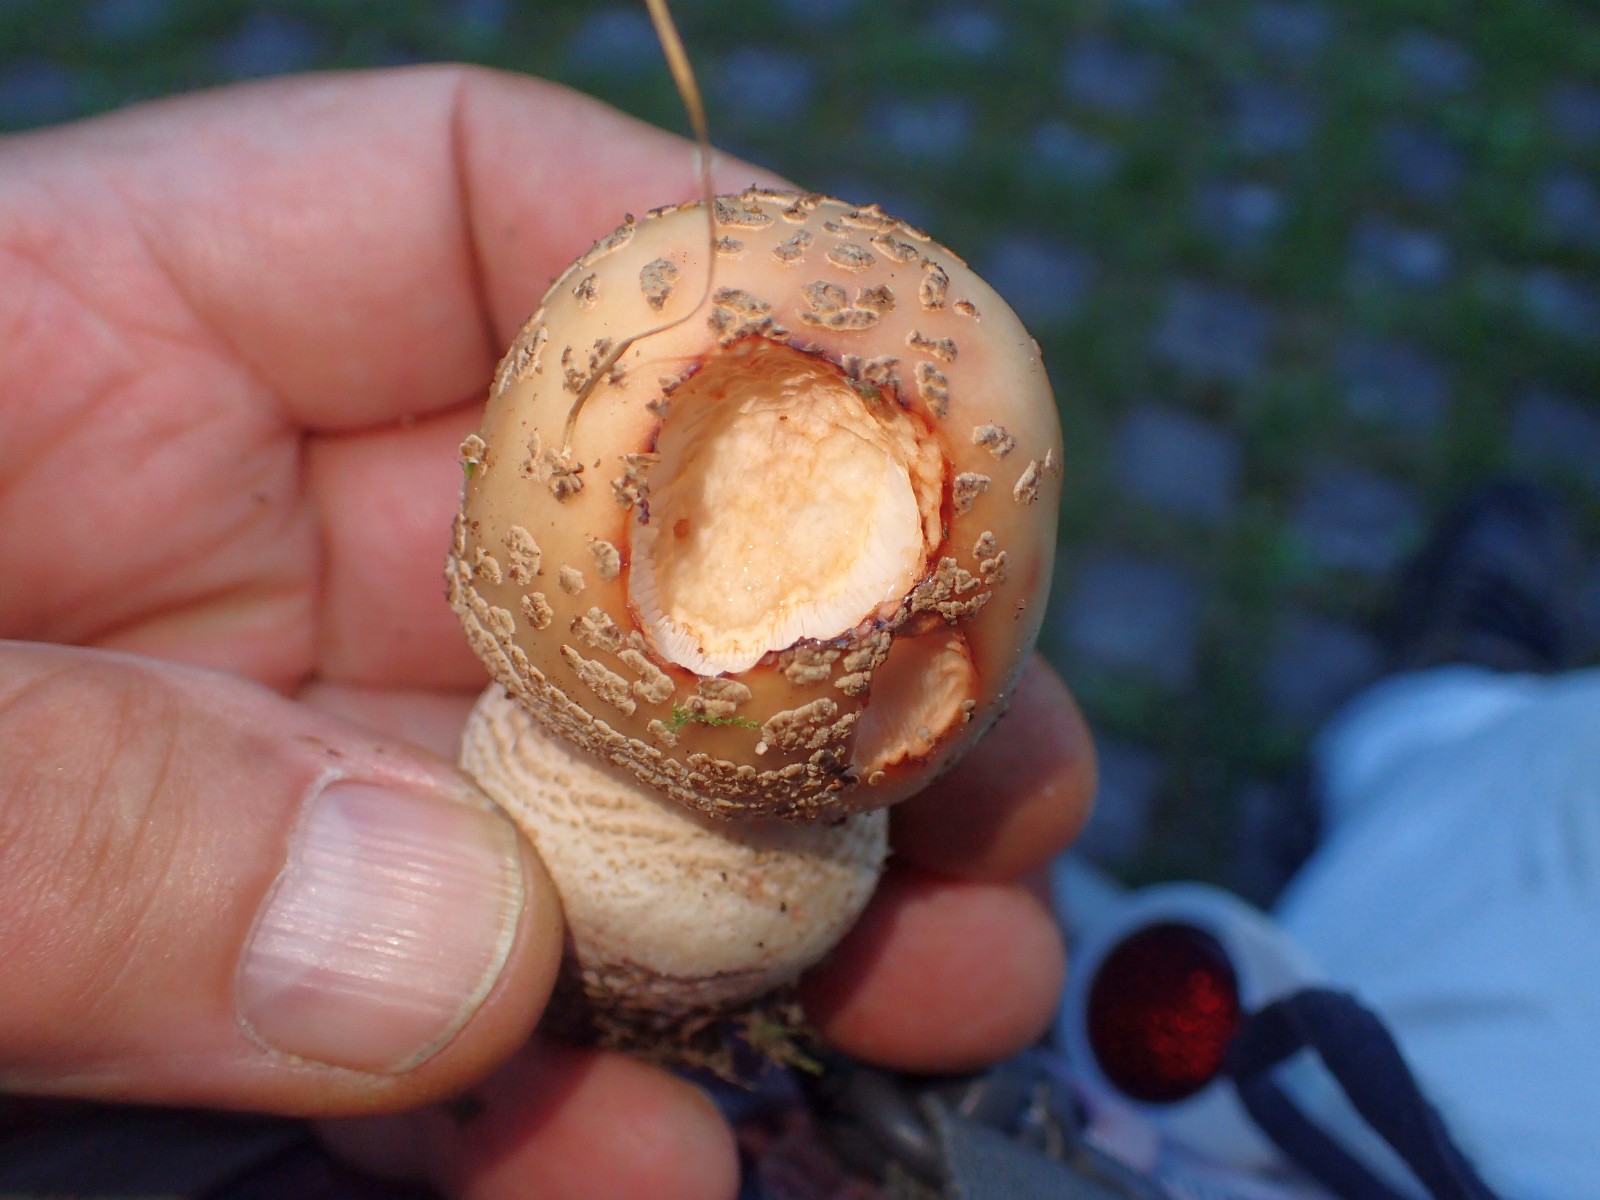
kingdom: Fungi
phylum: Basidiomycota
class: Agaricomycetes
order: Agaricales
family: Amanitaceae
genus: Amanita
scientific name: Amanita rubescens
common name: rødmende fluesvamp
